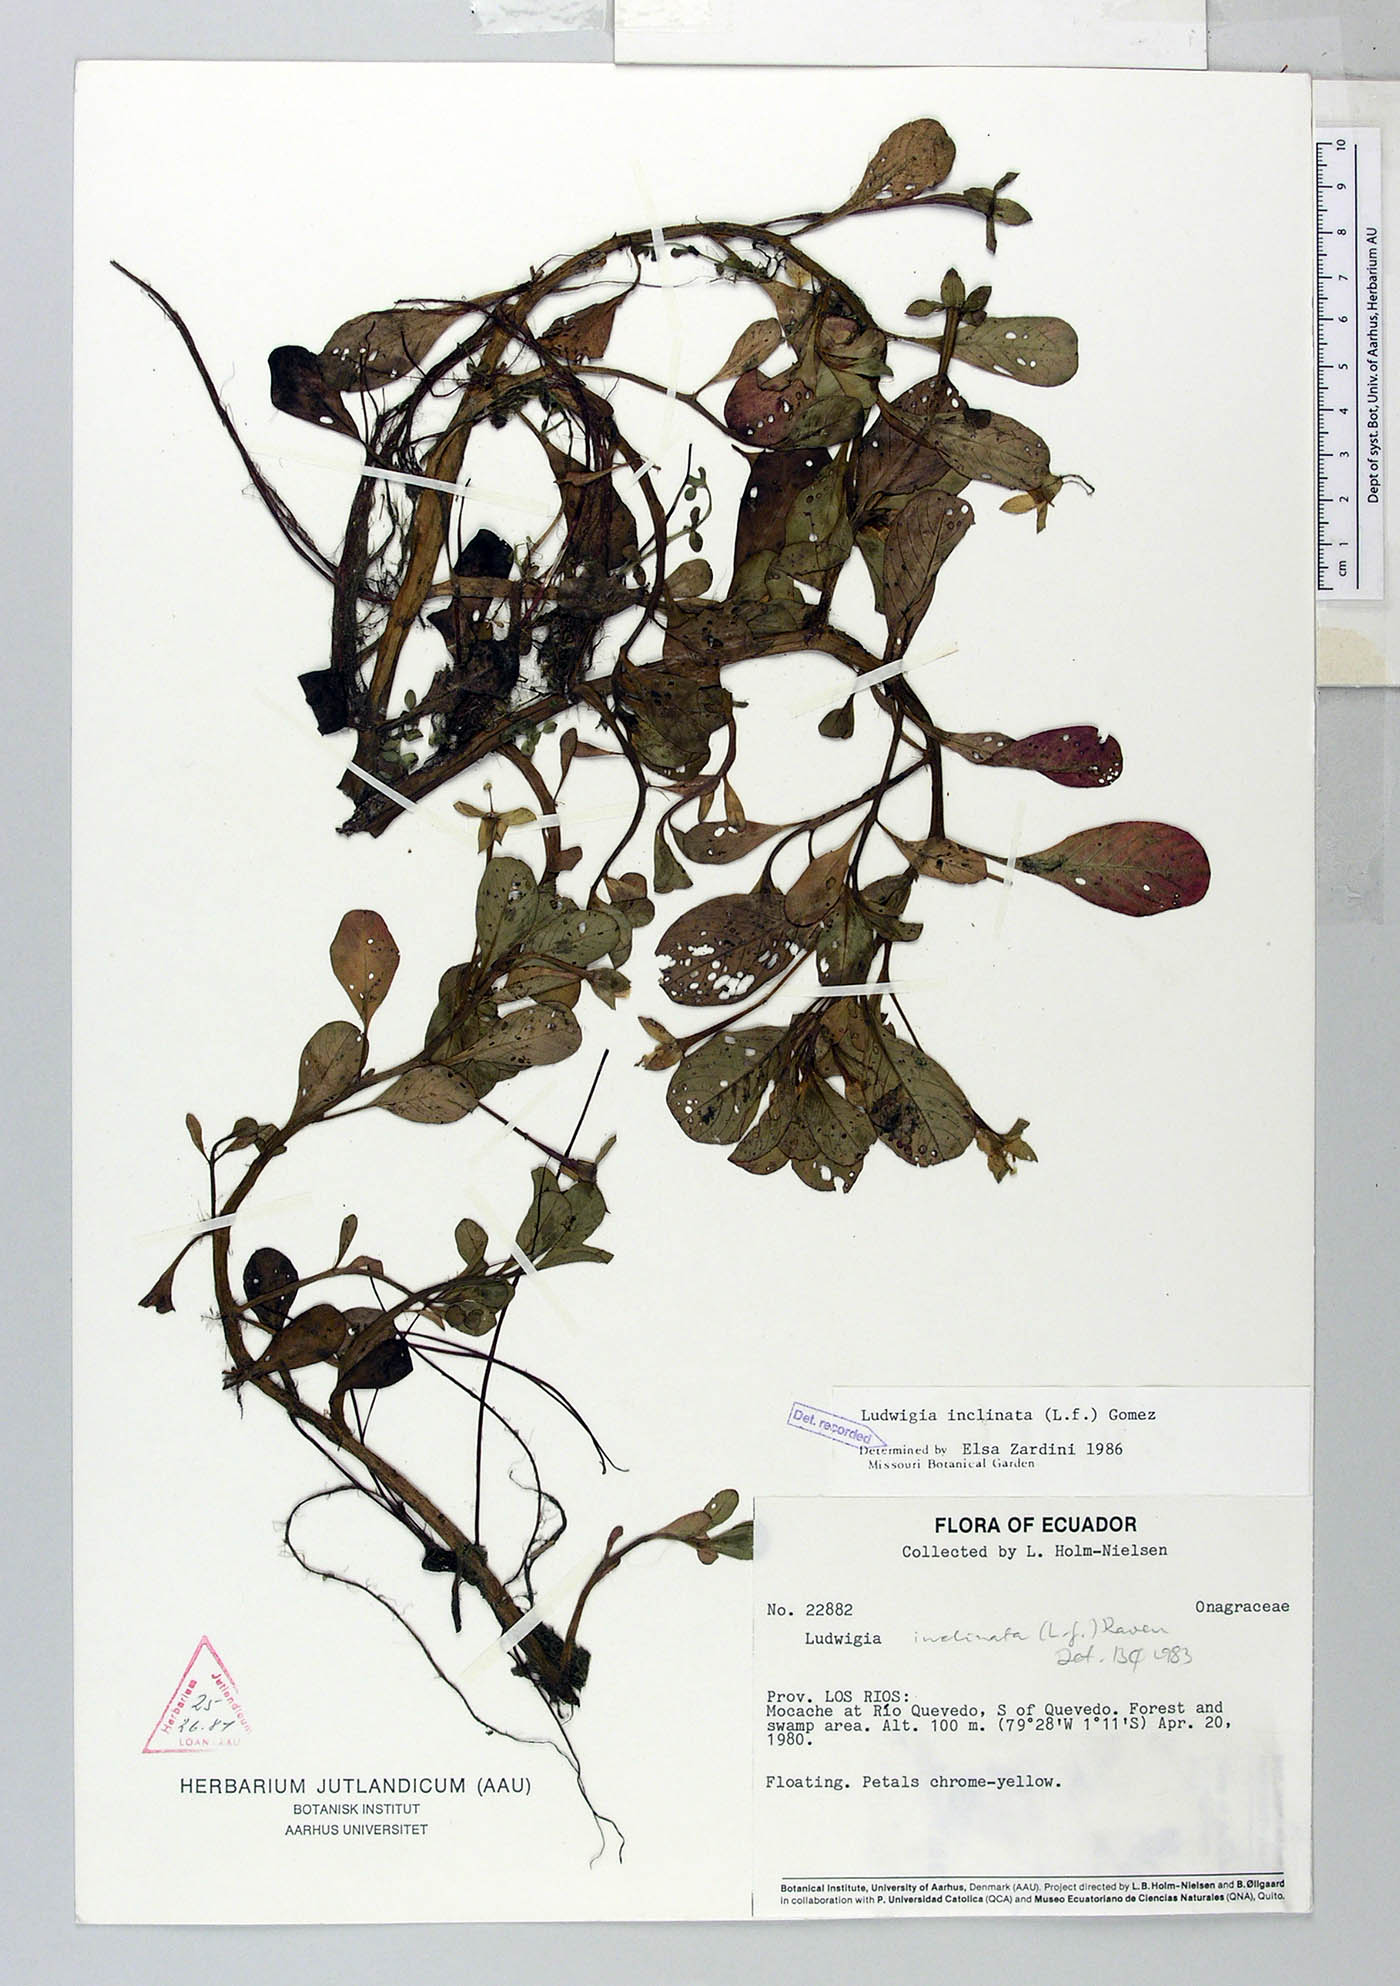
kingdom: Plantae
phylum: Tracheophyta
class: Magnoliopsida
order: Myrtales
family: Onagraceae
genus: Ludwigia
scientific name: Ludwigia inclinata
